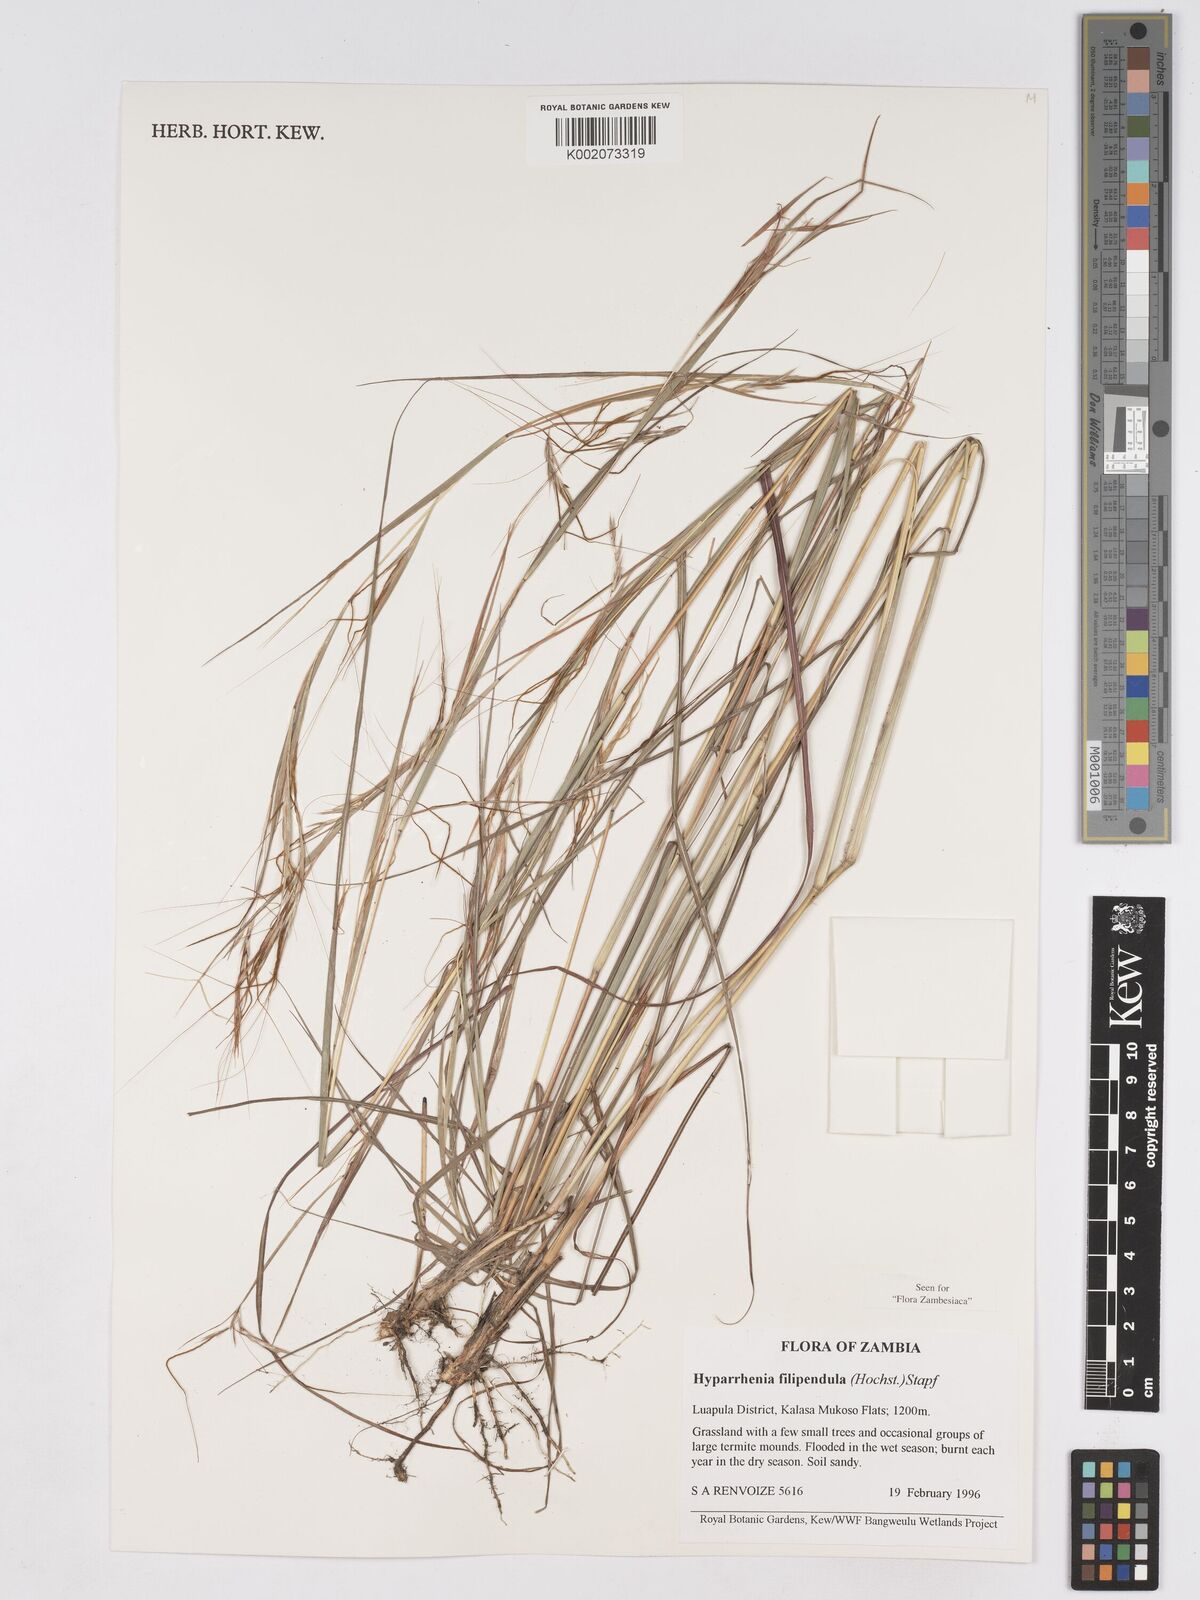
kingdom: Plantae
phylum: Tracheophyta
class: Liliopsida
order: Poales
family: Poaceae
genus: Hyparrhenia
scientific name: Hyparrhenia filipendula
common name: Tambookie grass
